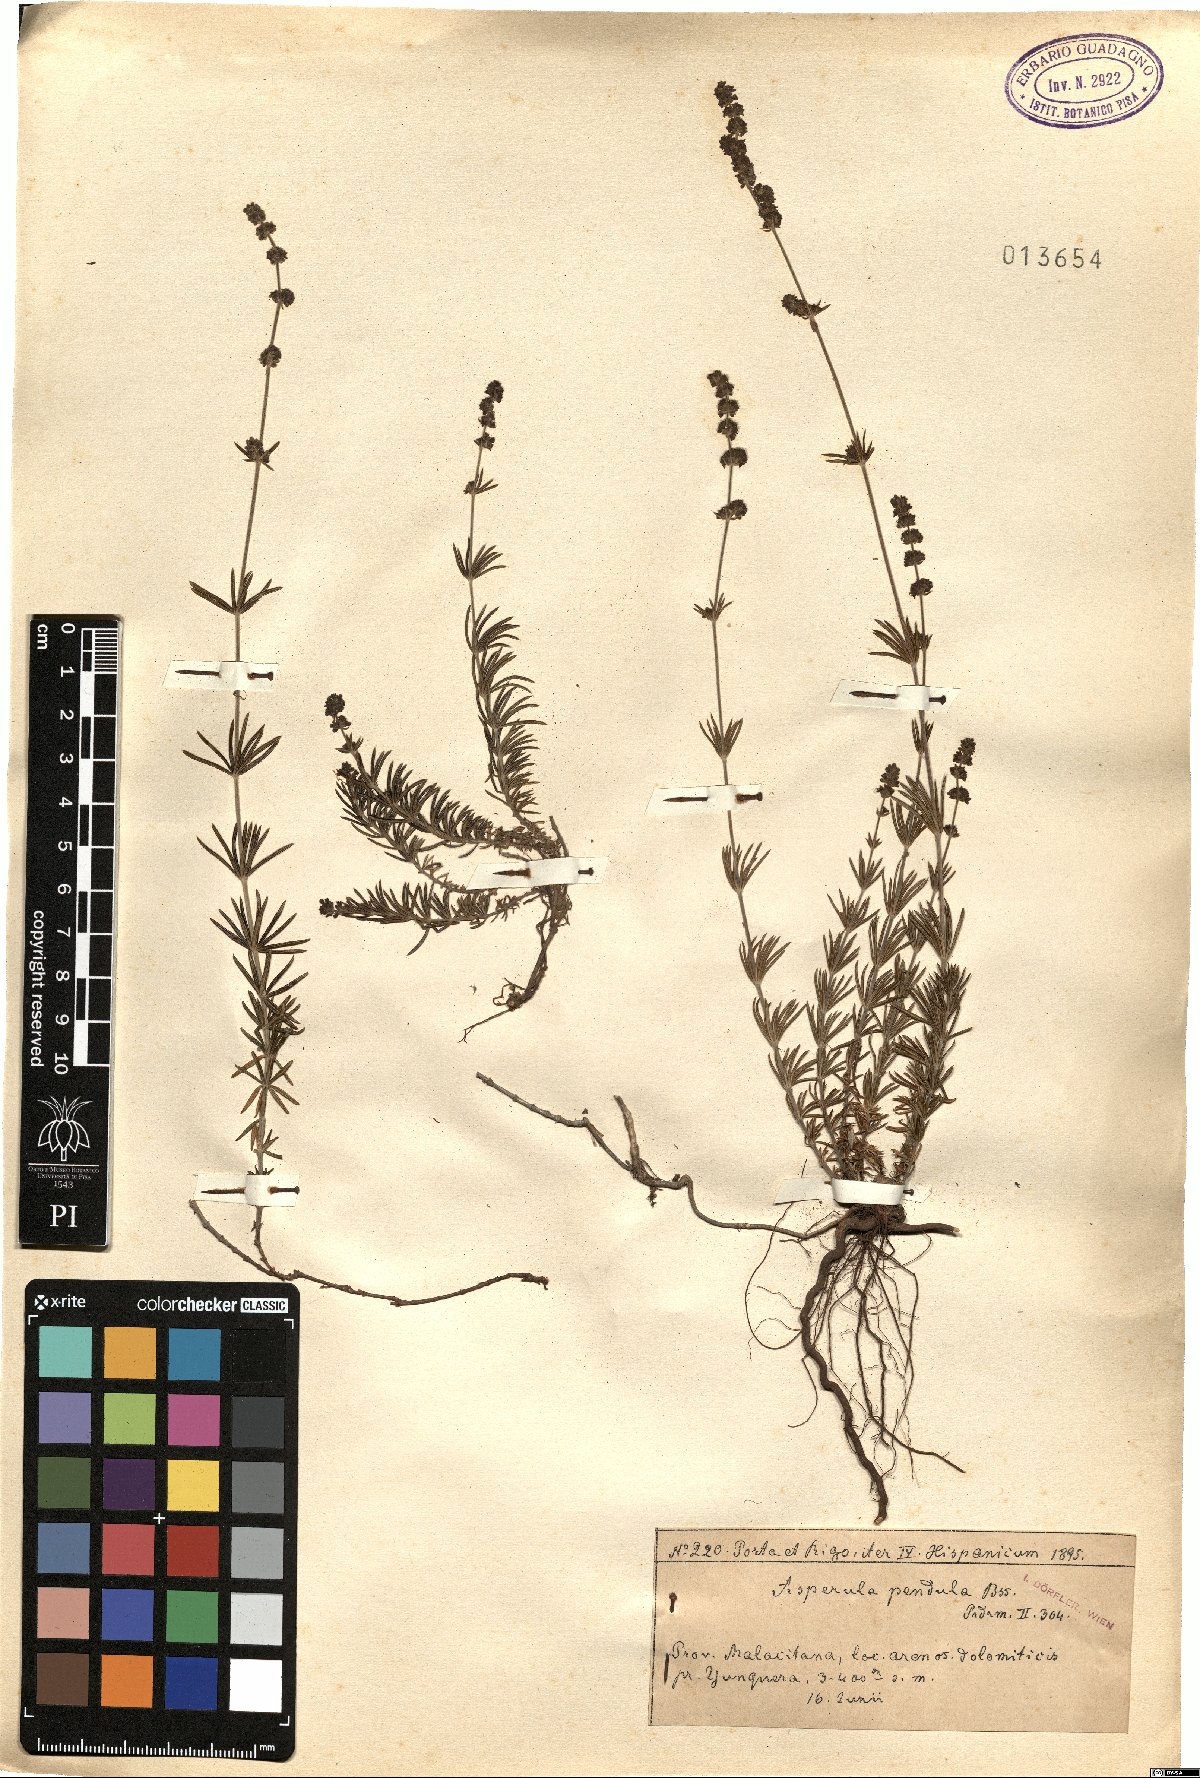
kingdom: Plantae
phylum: Tracheophyta
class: Magnoliopsida
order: Gentianales
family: Rubiaceae
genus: Galium
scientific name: Galium baeticum
